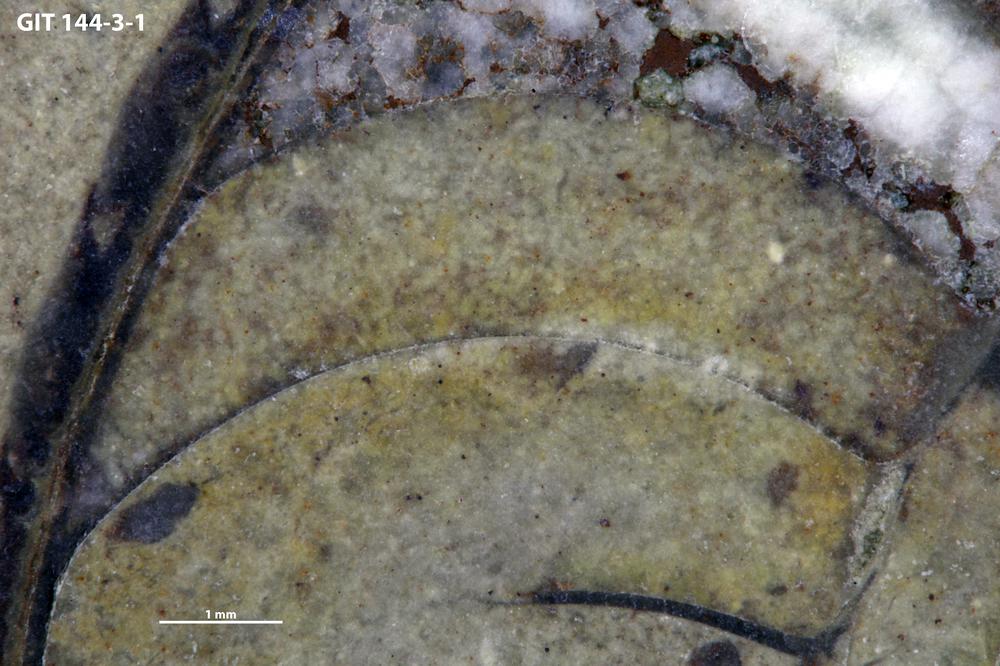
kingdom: Animalia
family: Coprulidae
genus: Coprulus
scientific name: Coprulus
